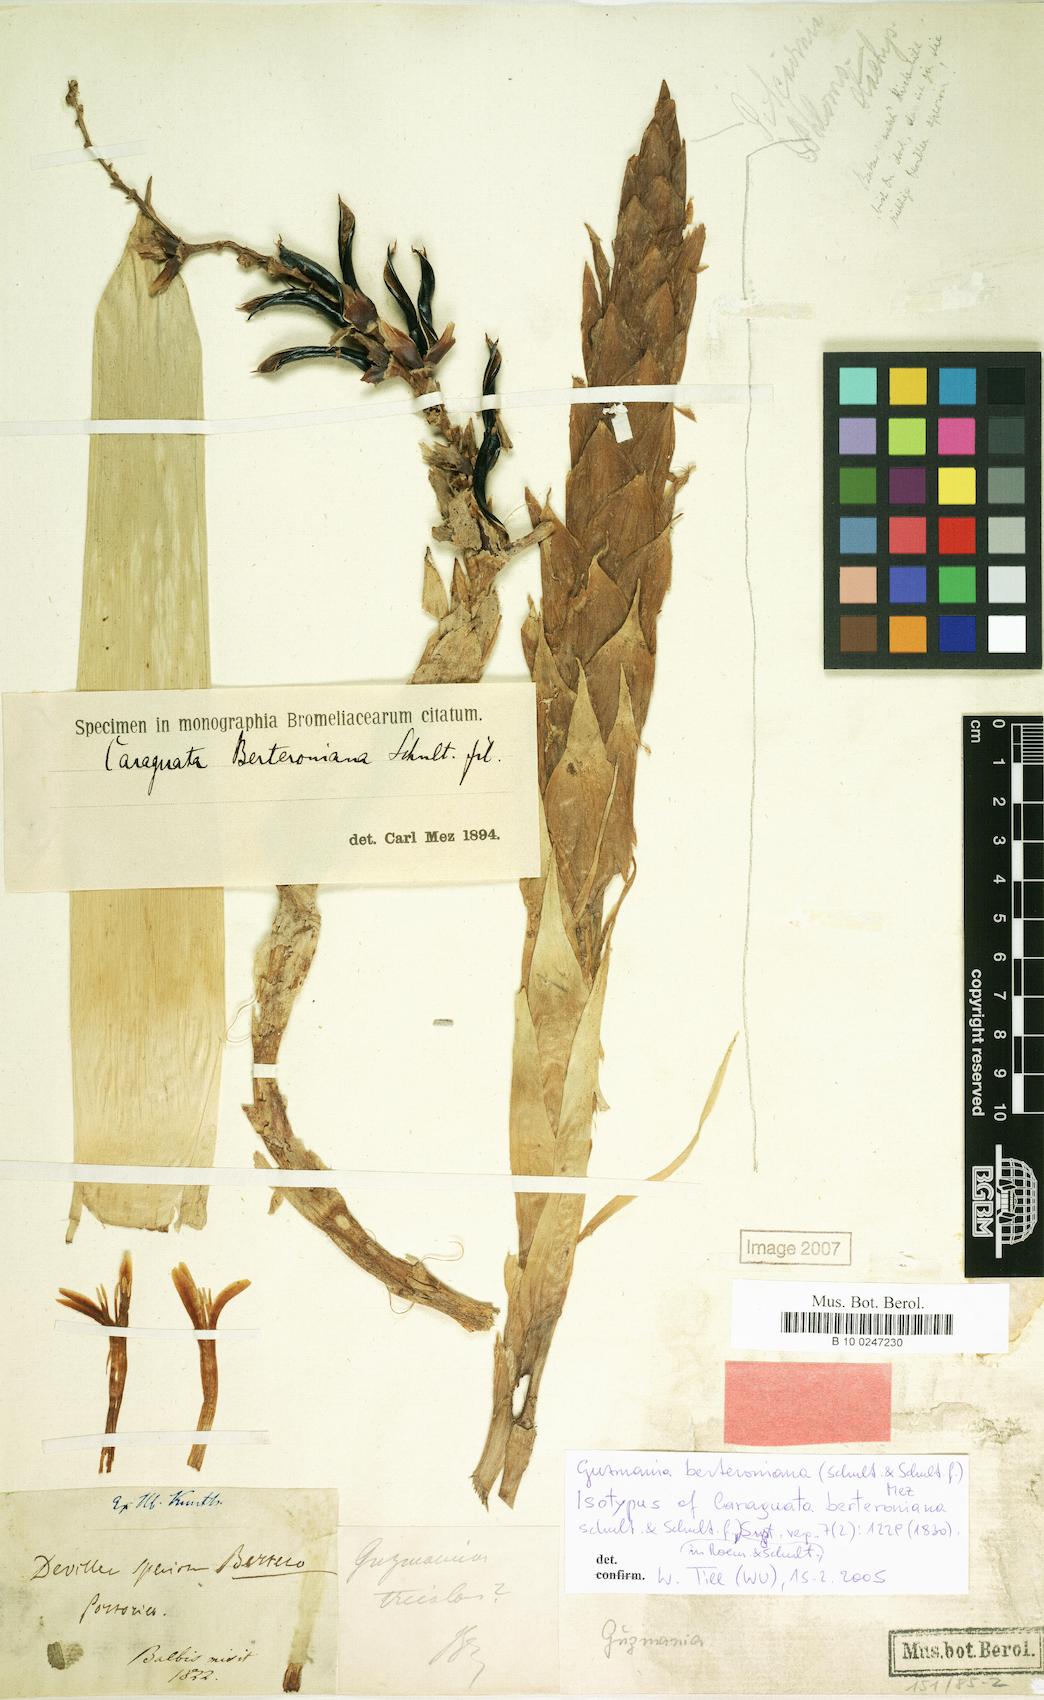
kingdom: Plantae
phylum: Tracheophyta
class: Liliopsida
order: Poales
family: Bromeliaceae
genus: Guzmania
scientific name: Guzmania berteroniana
